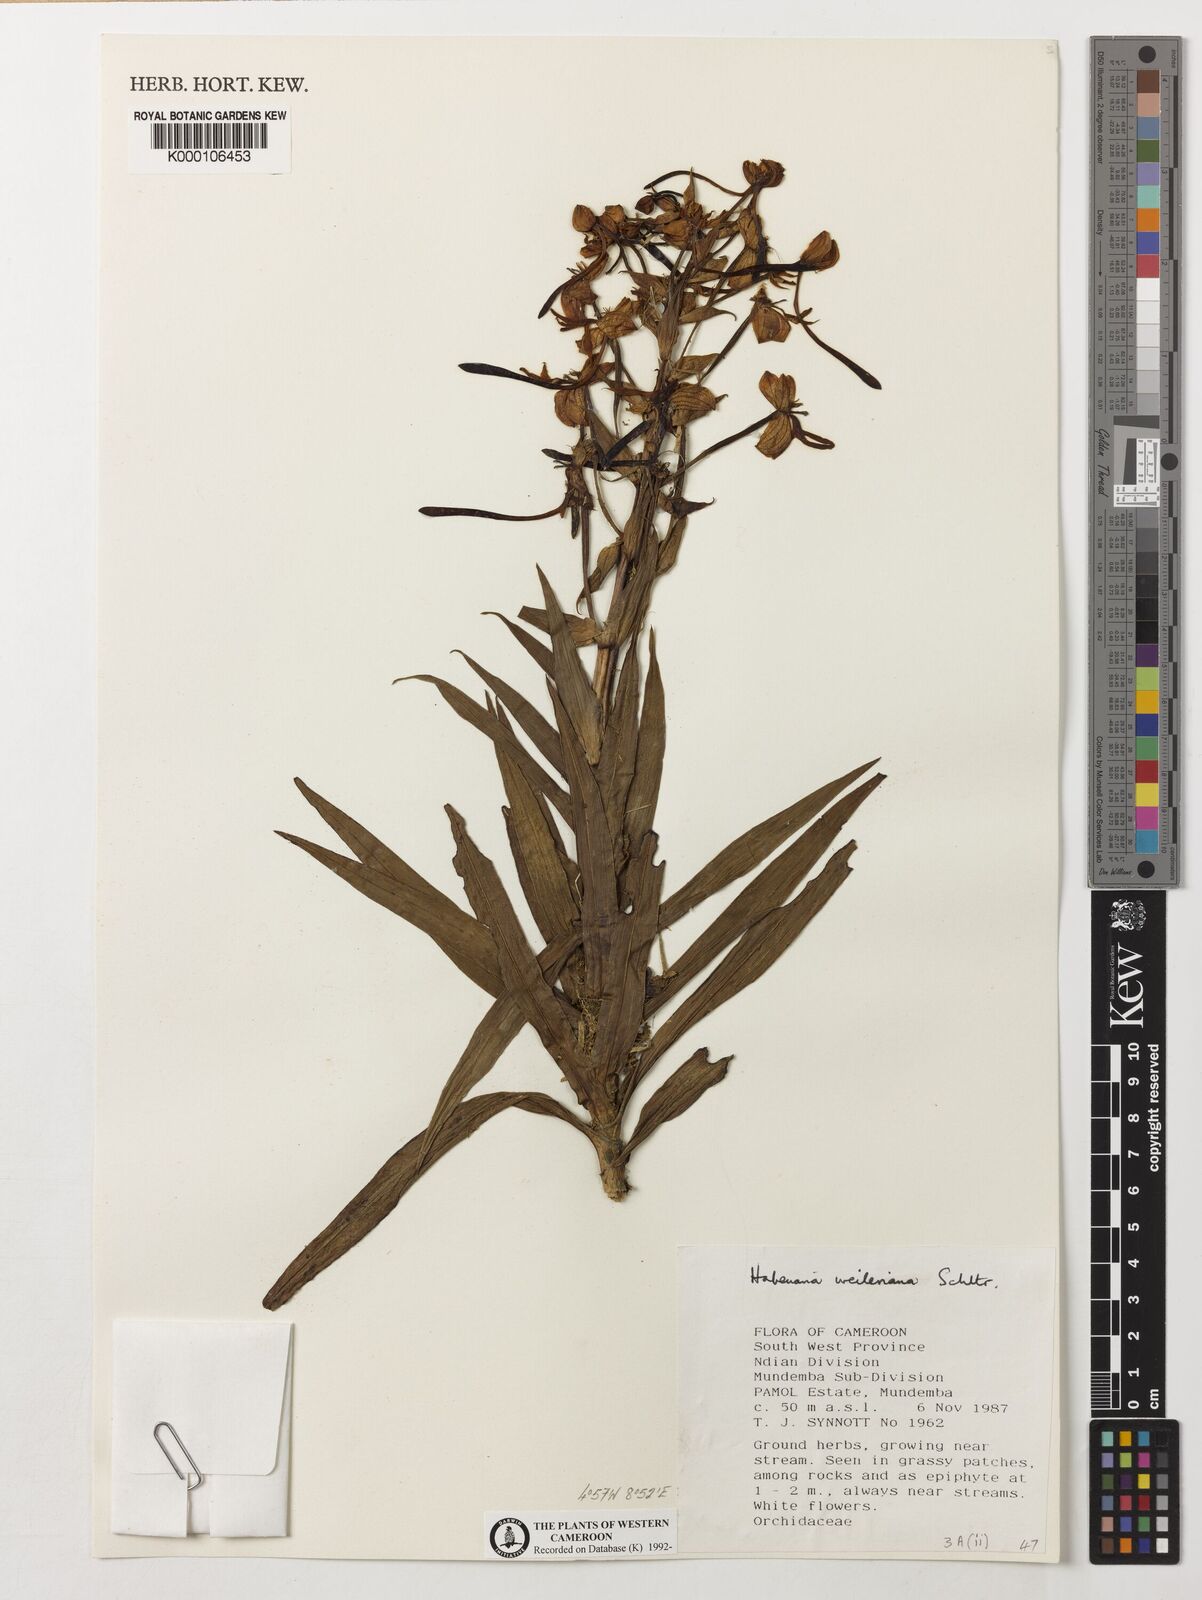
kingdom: Plantae
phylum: Tracheophyta
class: Liliopsida
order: Asparagales
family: Orchidaceae
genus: Habenaria
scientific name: Habenaria weileriana
